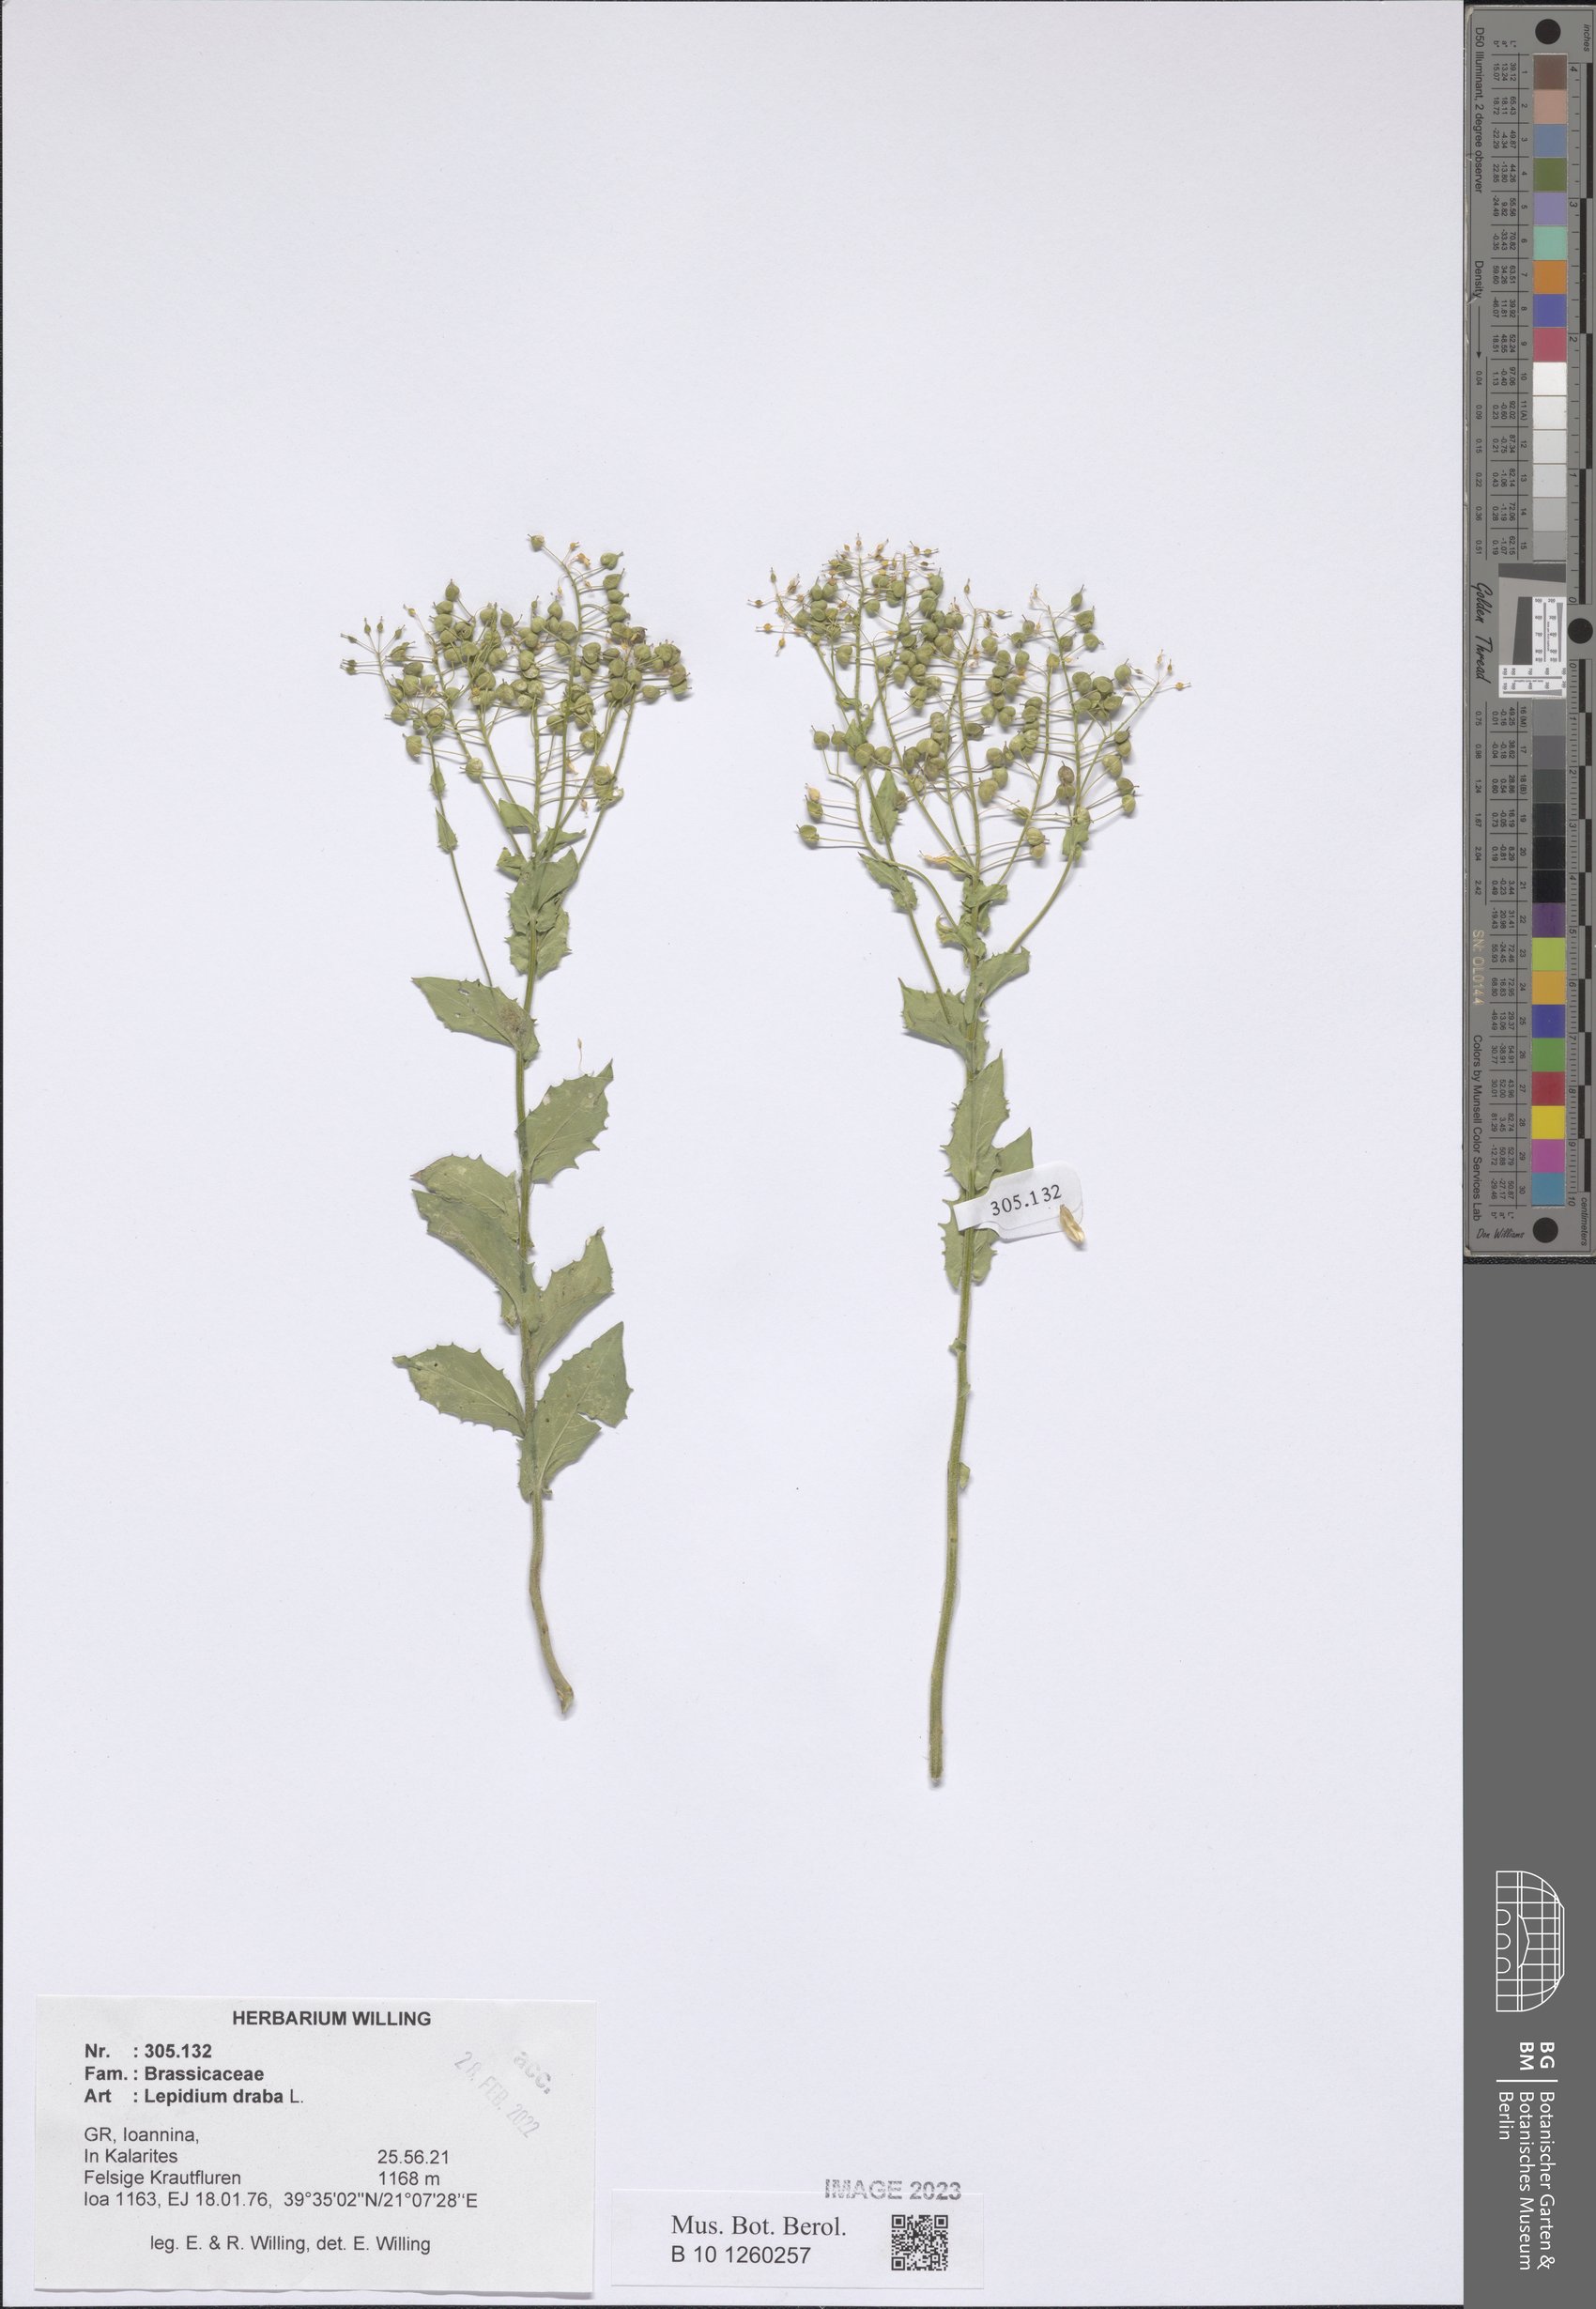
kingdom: Plantae
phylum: Tracheophyta
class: Magnoliopsida
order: Brassicales
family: Brassicaceae
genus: Lepidium
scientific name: Lepidium draba
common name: Hoary cress
